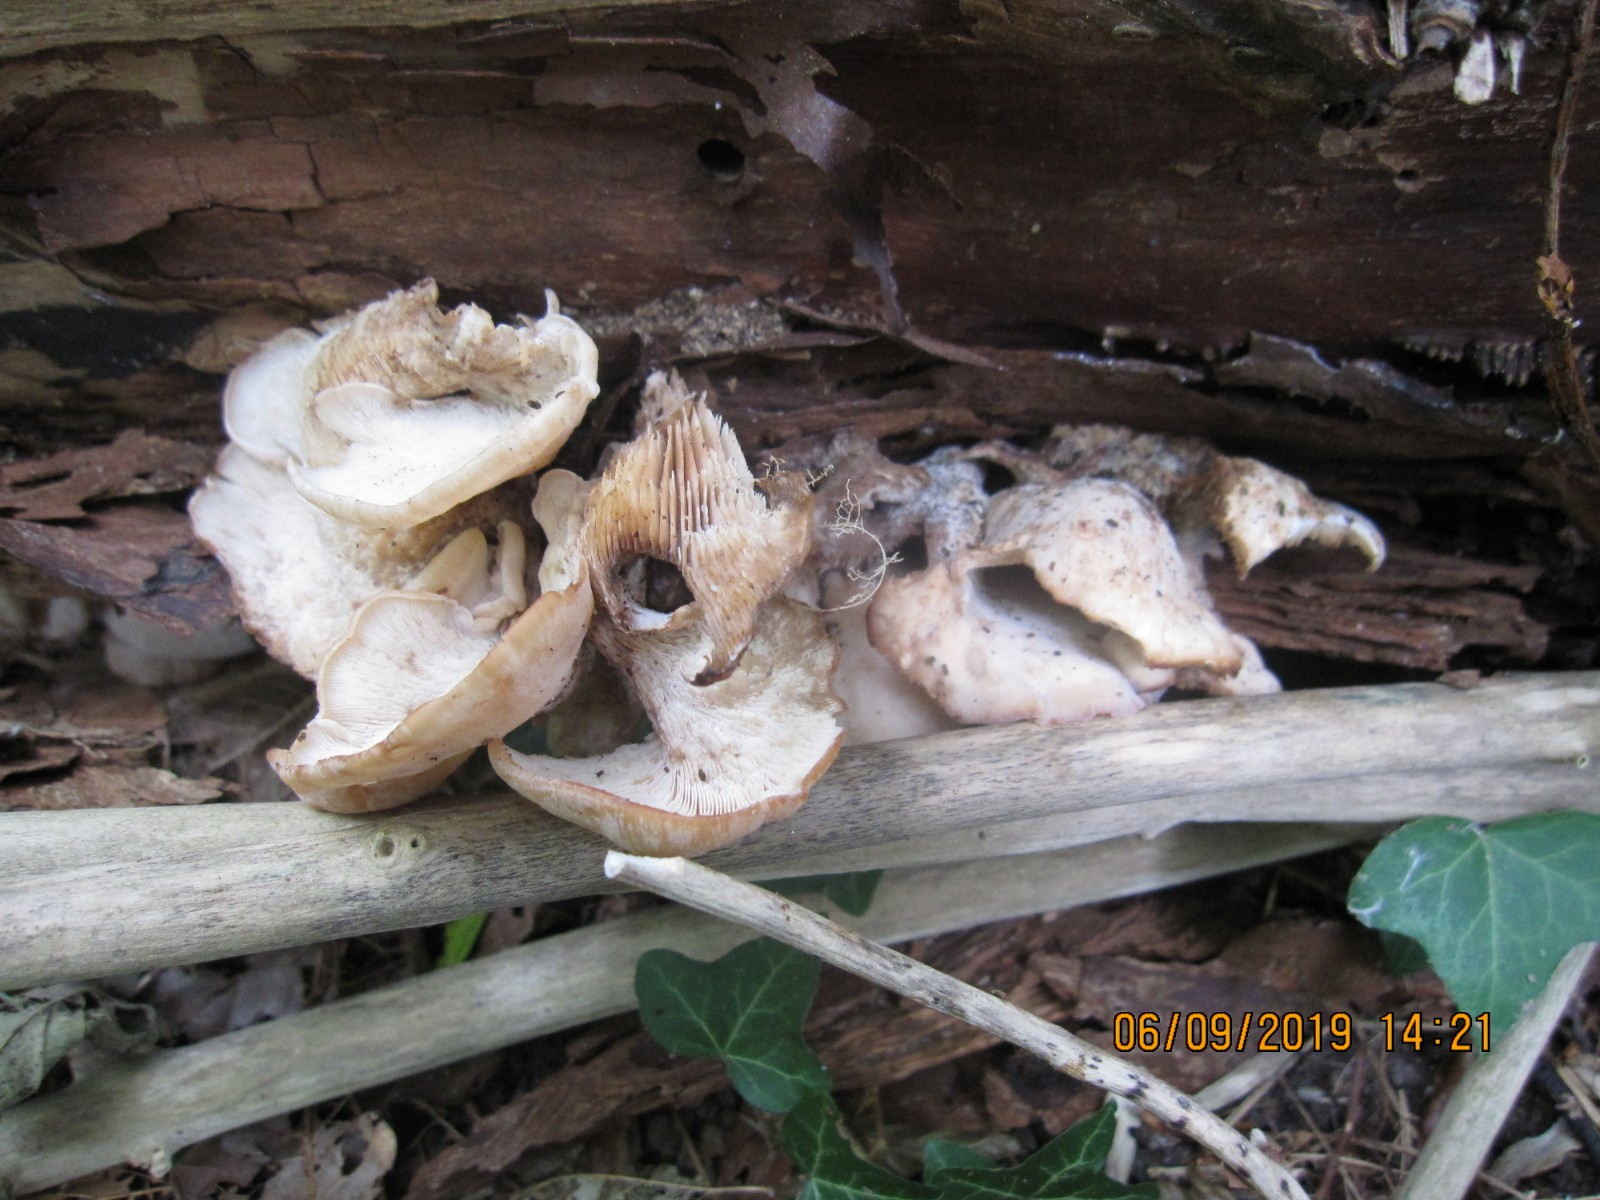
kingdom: Fungi
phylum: Basidiomycota
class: Agaricomycetes
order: Russulales
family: Auriscalpiaceae
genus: Lentinellus
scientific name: Lentinellus ursinus
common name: børstehåret savbladhat
